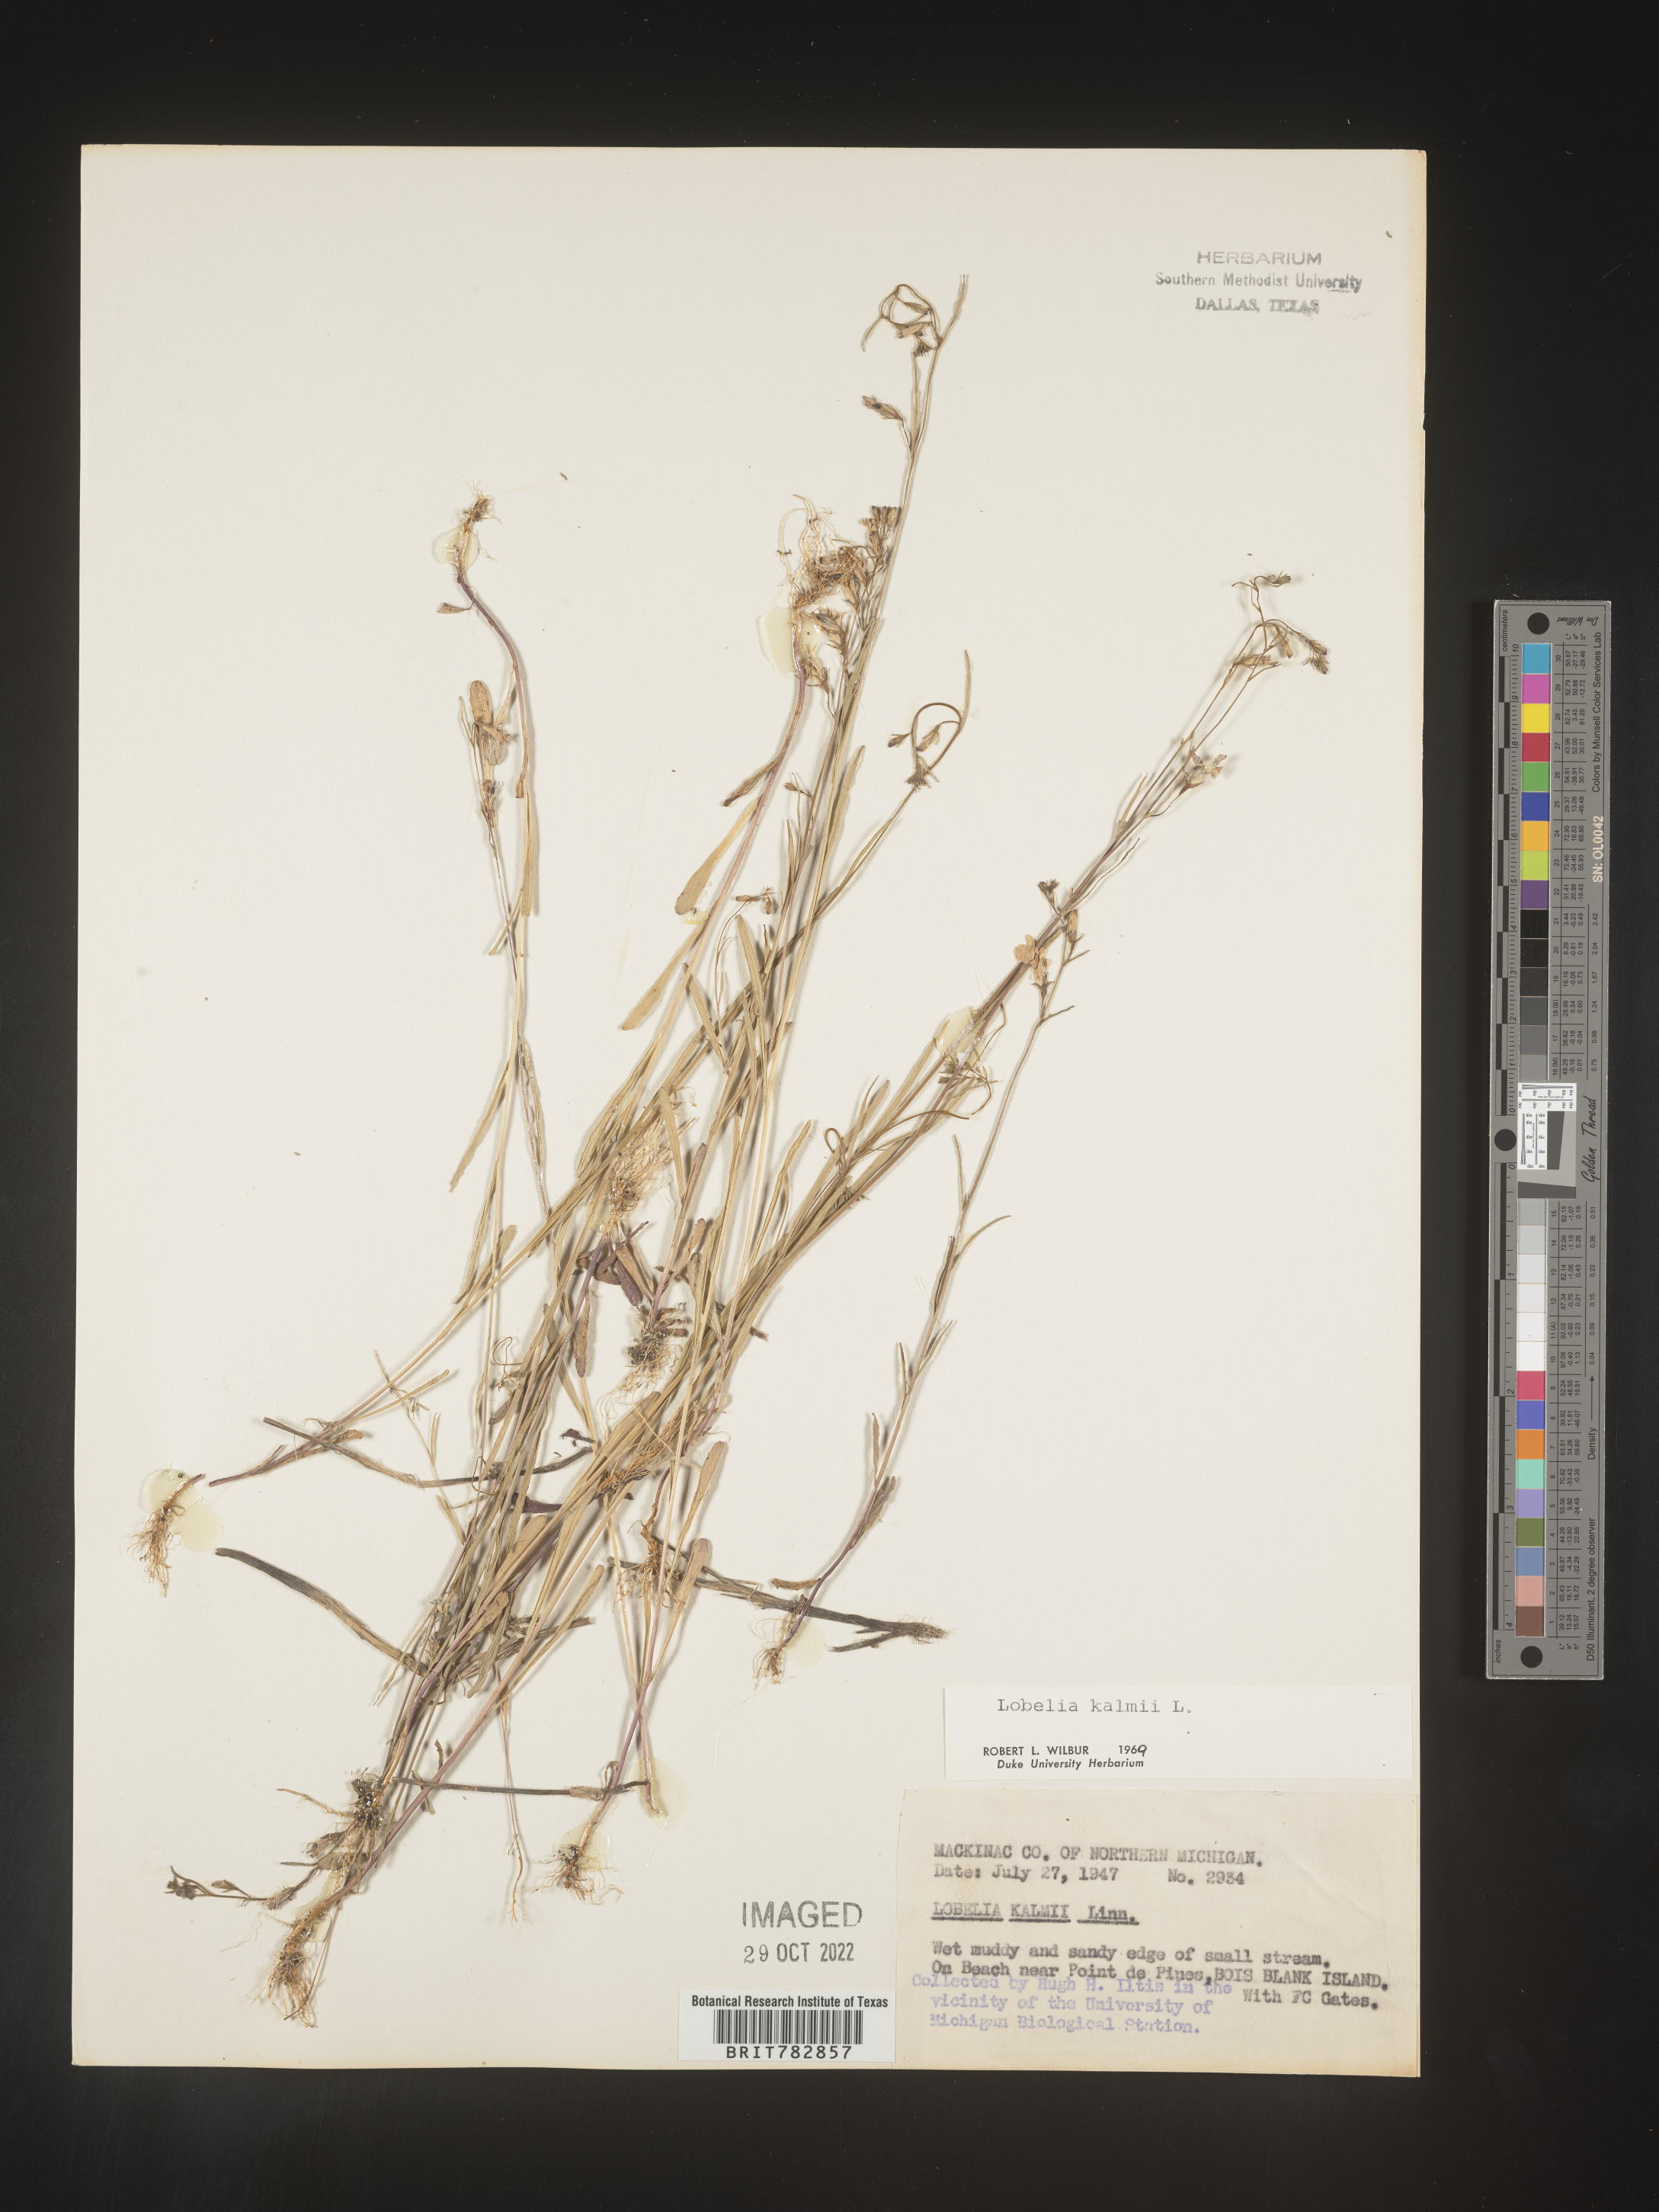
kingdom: Plantae
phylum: Tracheophyta
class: Magnoliopsida
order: Asterales
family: Campanulaceae
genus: Lobelia
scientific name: Lobelia
